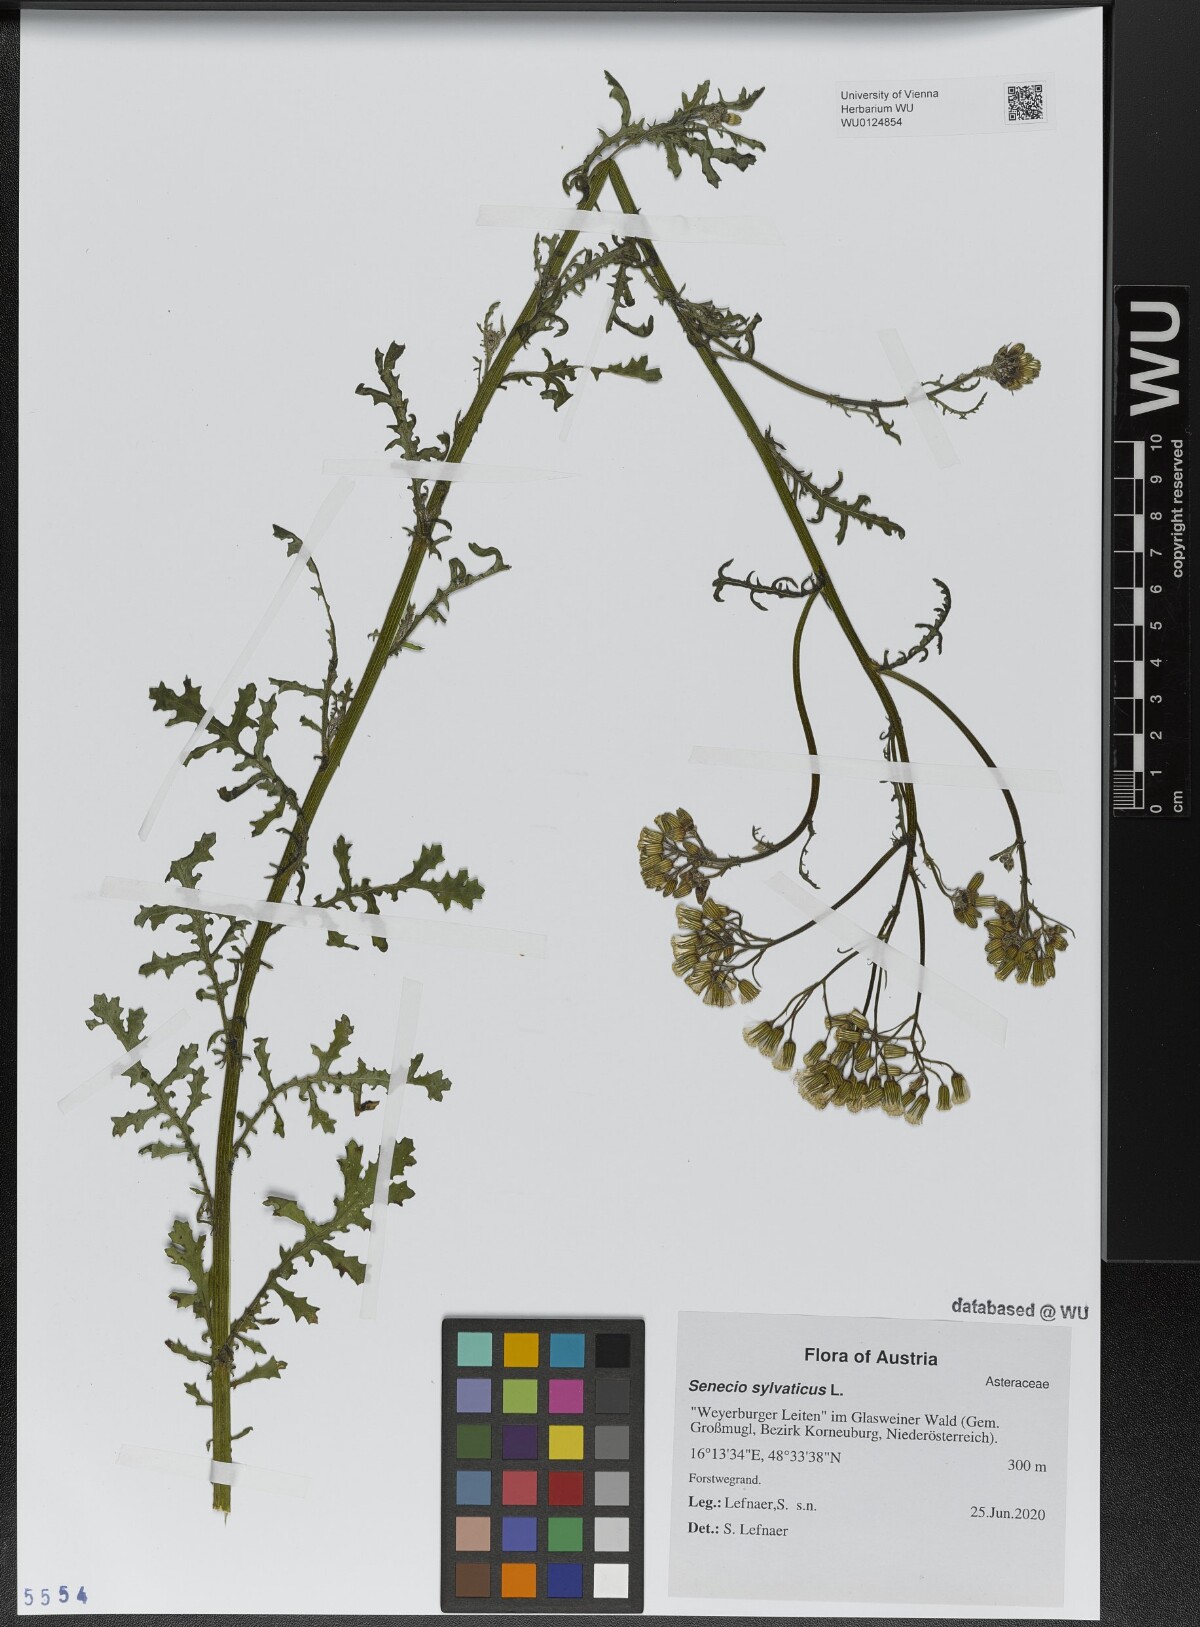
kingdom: Plantae
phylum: Tracheophyta
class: Magnoliopsida
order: Asterales
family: Asteraceae
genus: Senecio
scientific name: Senecio sylvaticus
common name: Woodland ragwort
